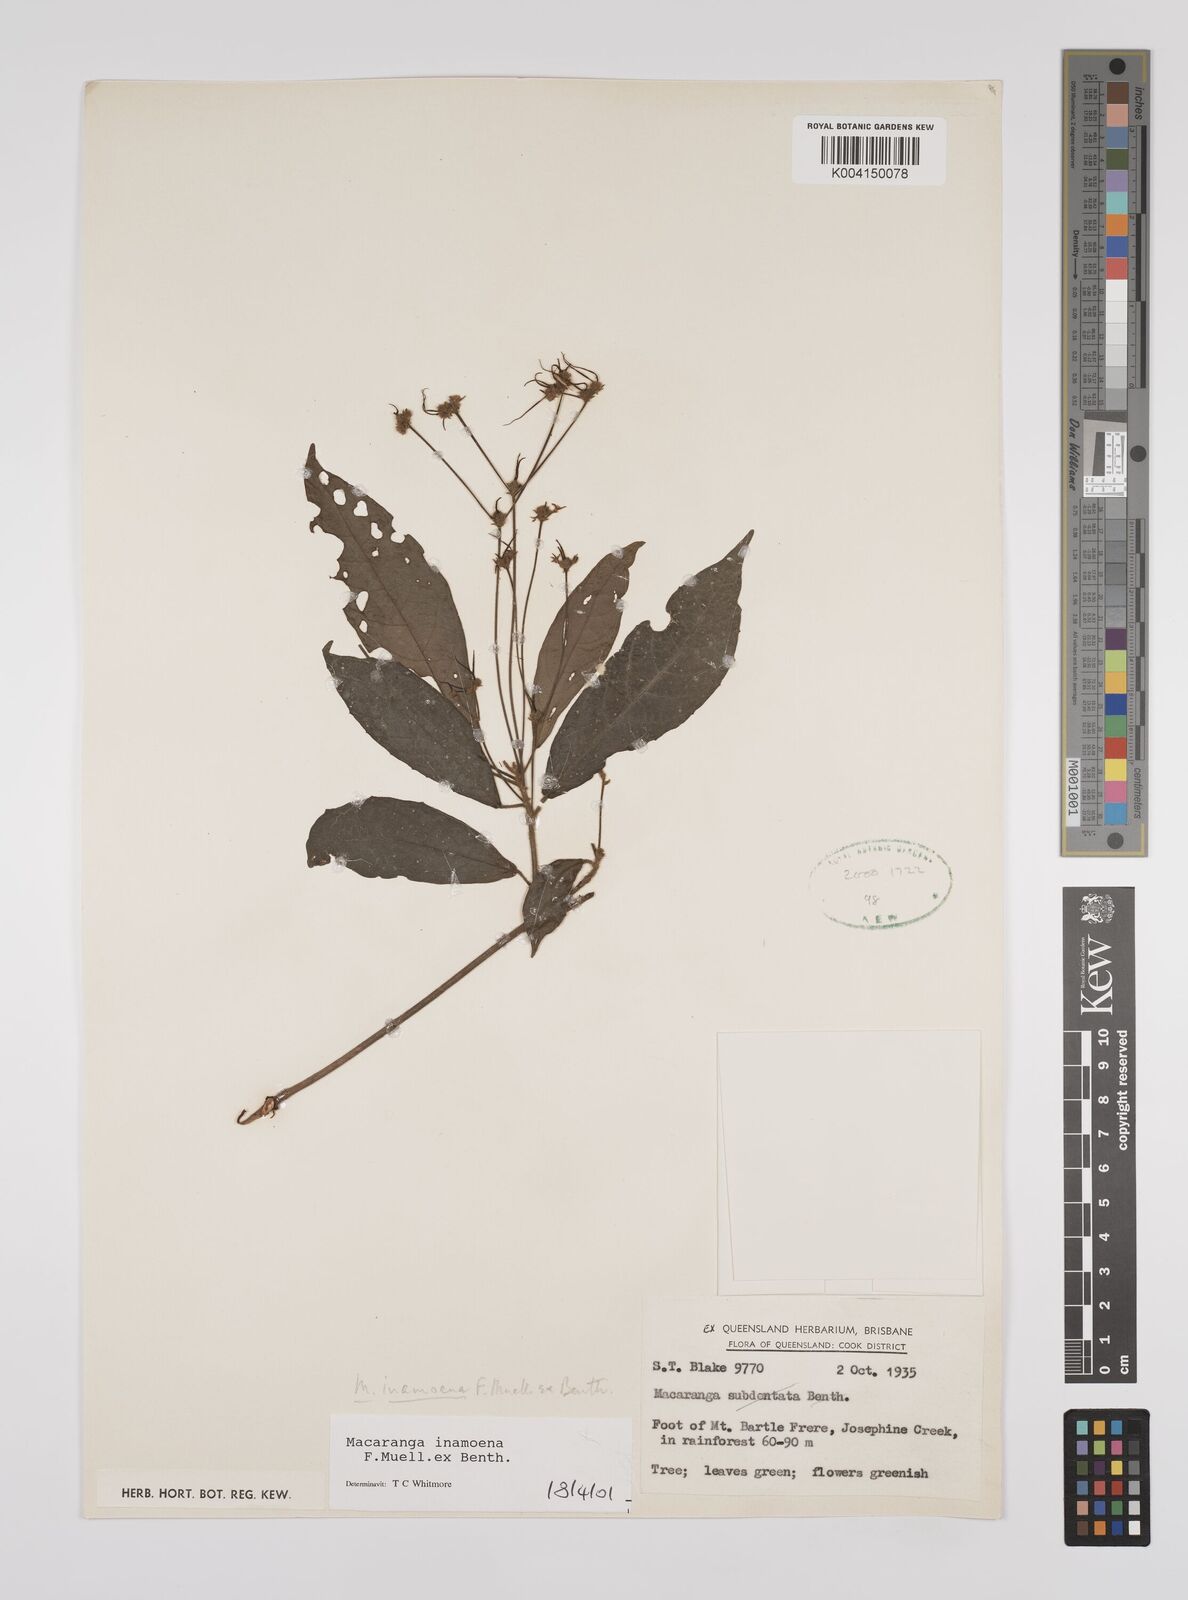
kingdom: Plantae
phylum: Tracheophyta
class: Magnoliopsida
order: Malpighiales
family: Euphorbiaceae
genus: Macaranga
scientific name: Macaranga inamoena
